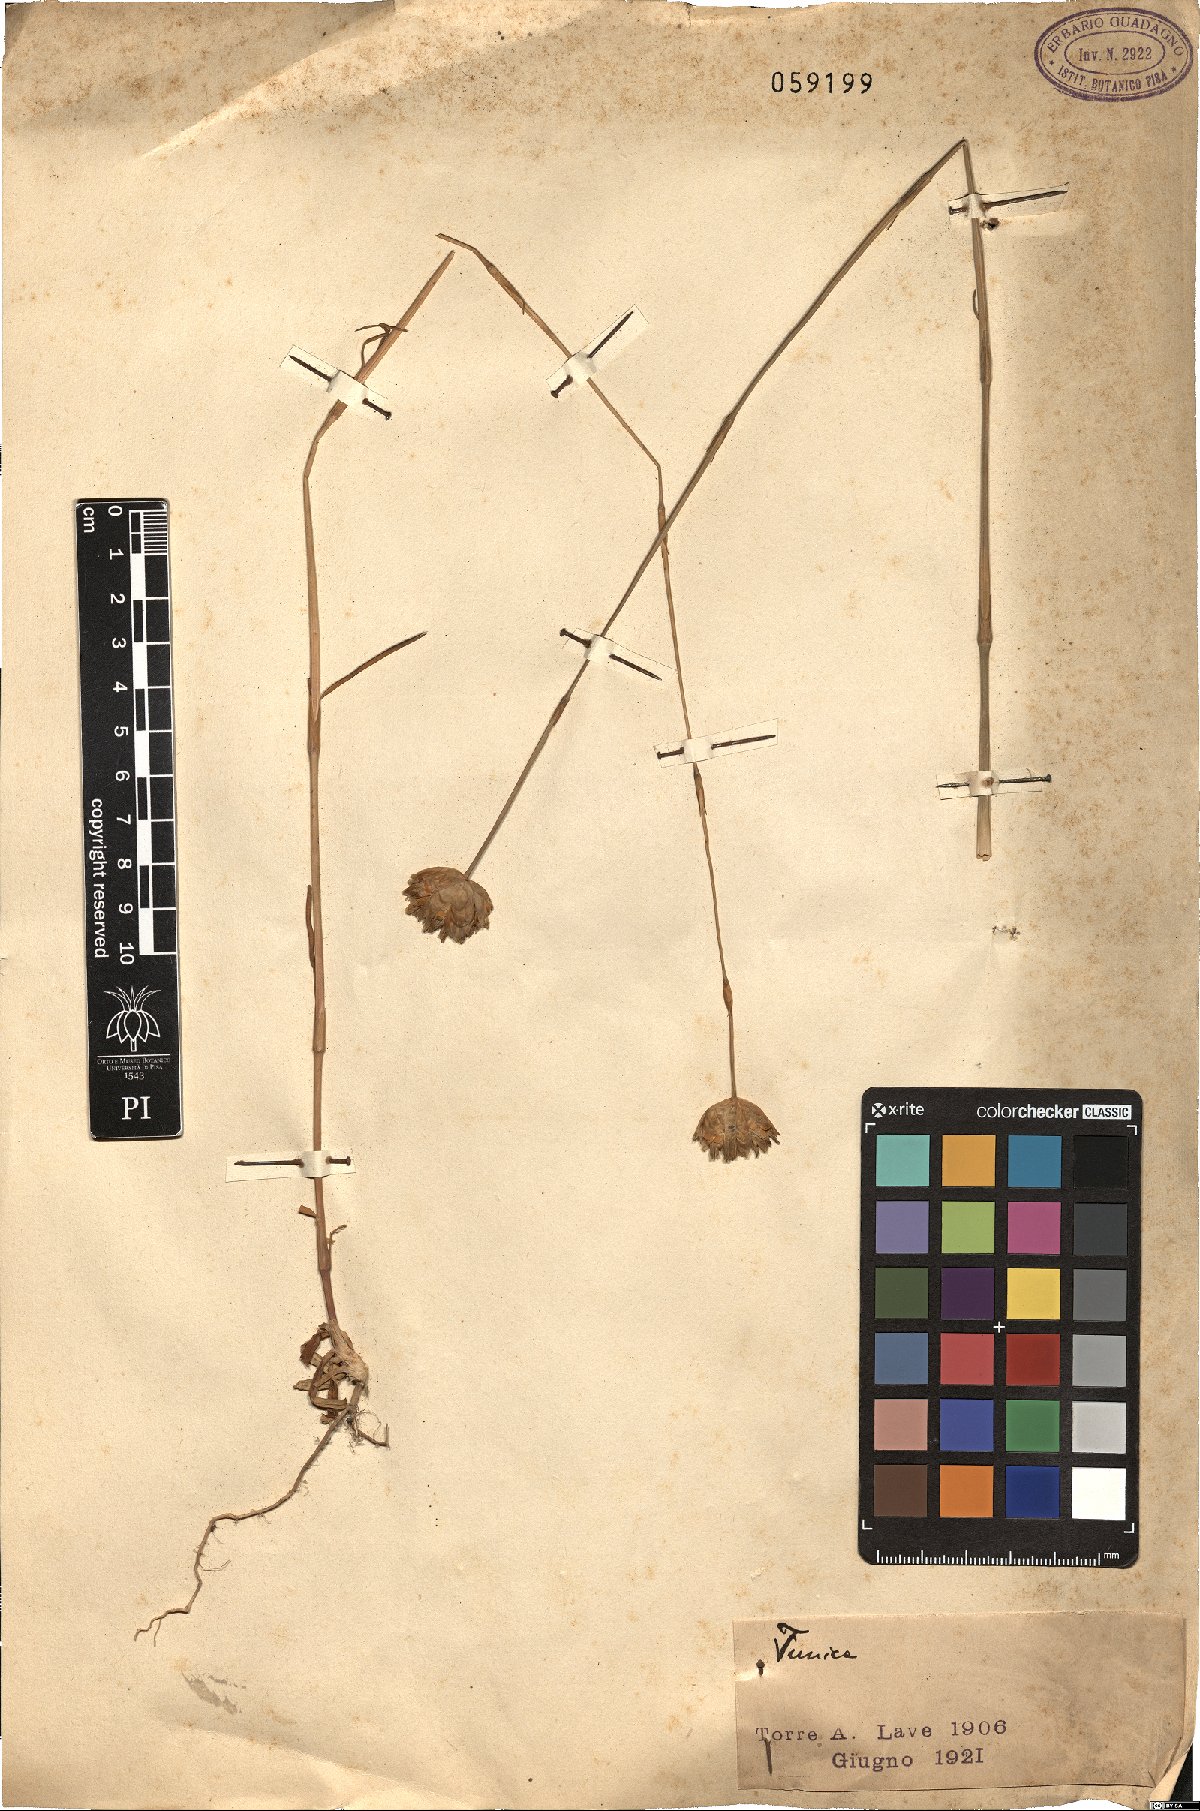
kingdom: Plantae
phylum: Tracheophyta
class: Magnoliopsida
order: Caryophyllales
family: Caryophyllaceae
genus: Tunica
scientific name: Tunica
